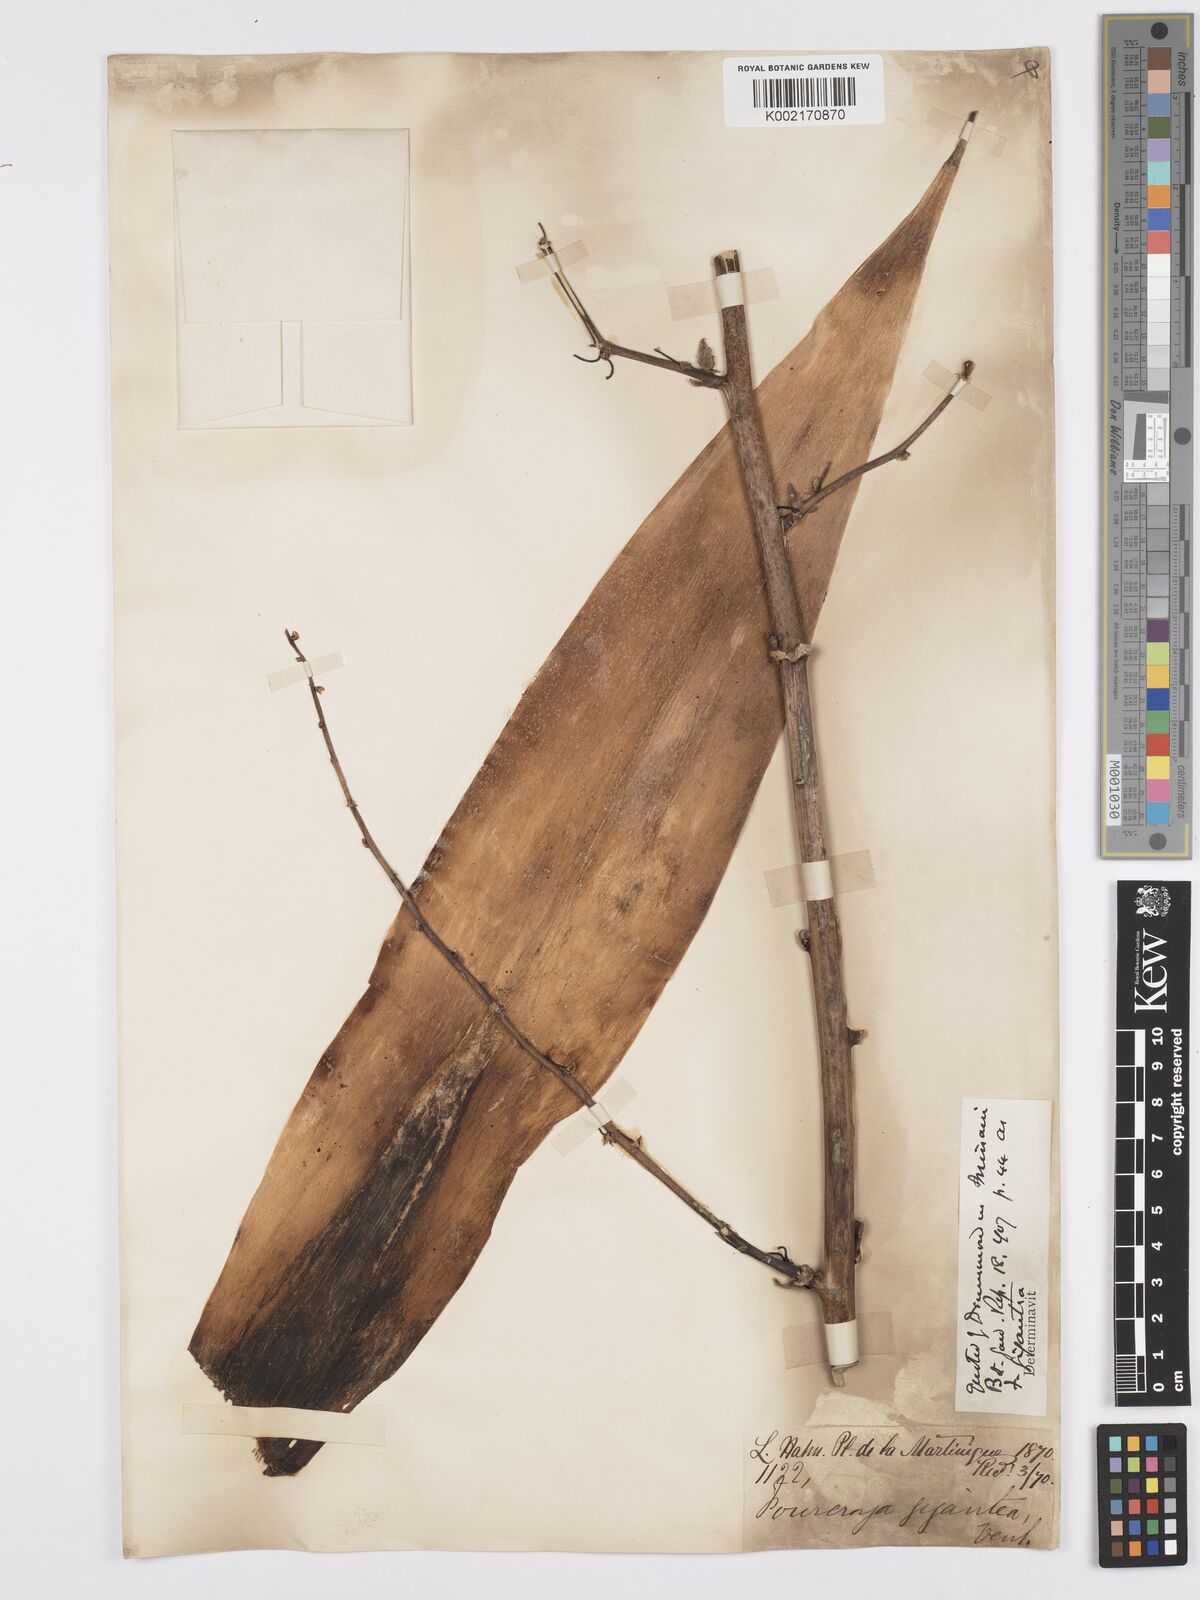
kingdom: Plantae
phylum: Tracheophyta
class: Liliopsida
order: Asparagales
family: Asparagaceae
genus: Furcraea
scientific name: Furcraea foetida
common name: Mauritius hemp
